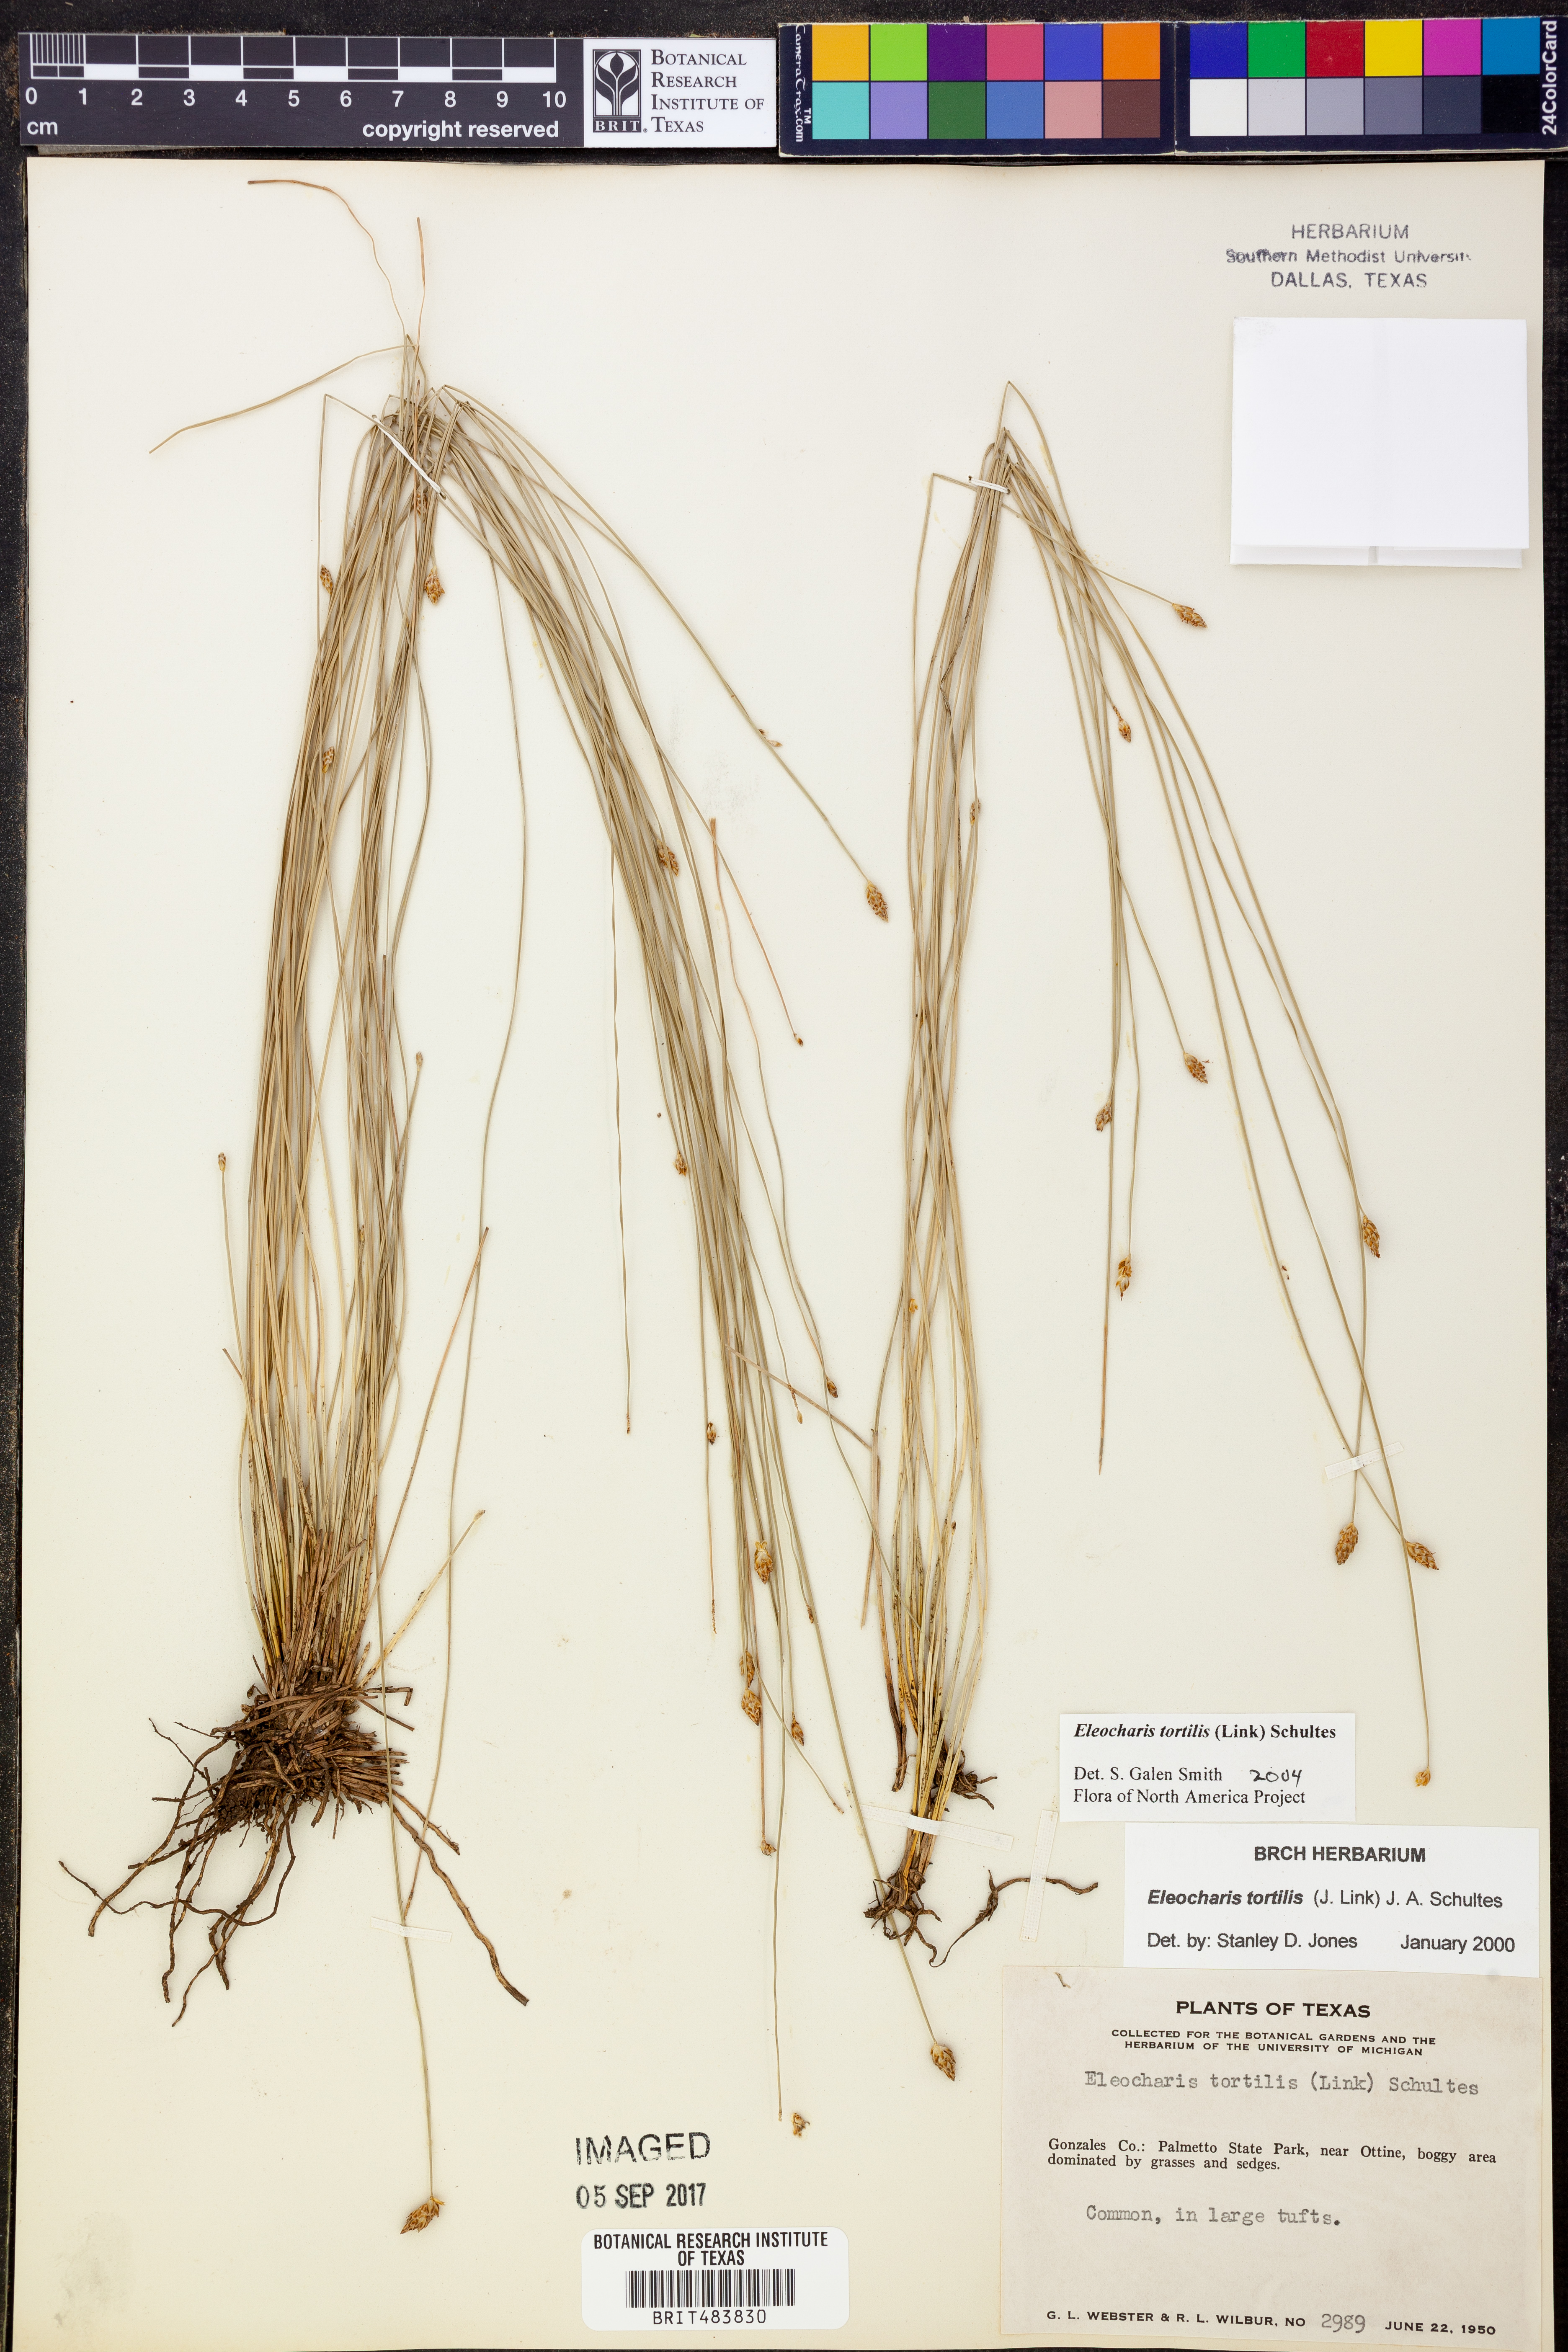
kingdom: Plantae
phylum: Tracheophyta
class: Liliopsida
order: Poales
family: Cyperaceae
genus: Eleocharis
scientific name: Eleocharis tortilis
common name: Twisted spike sedge
